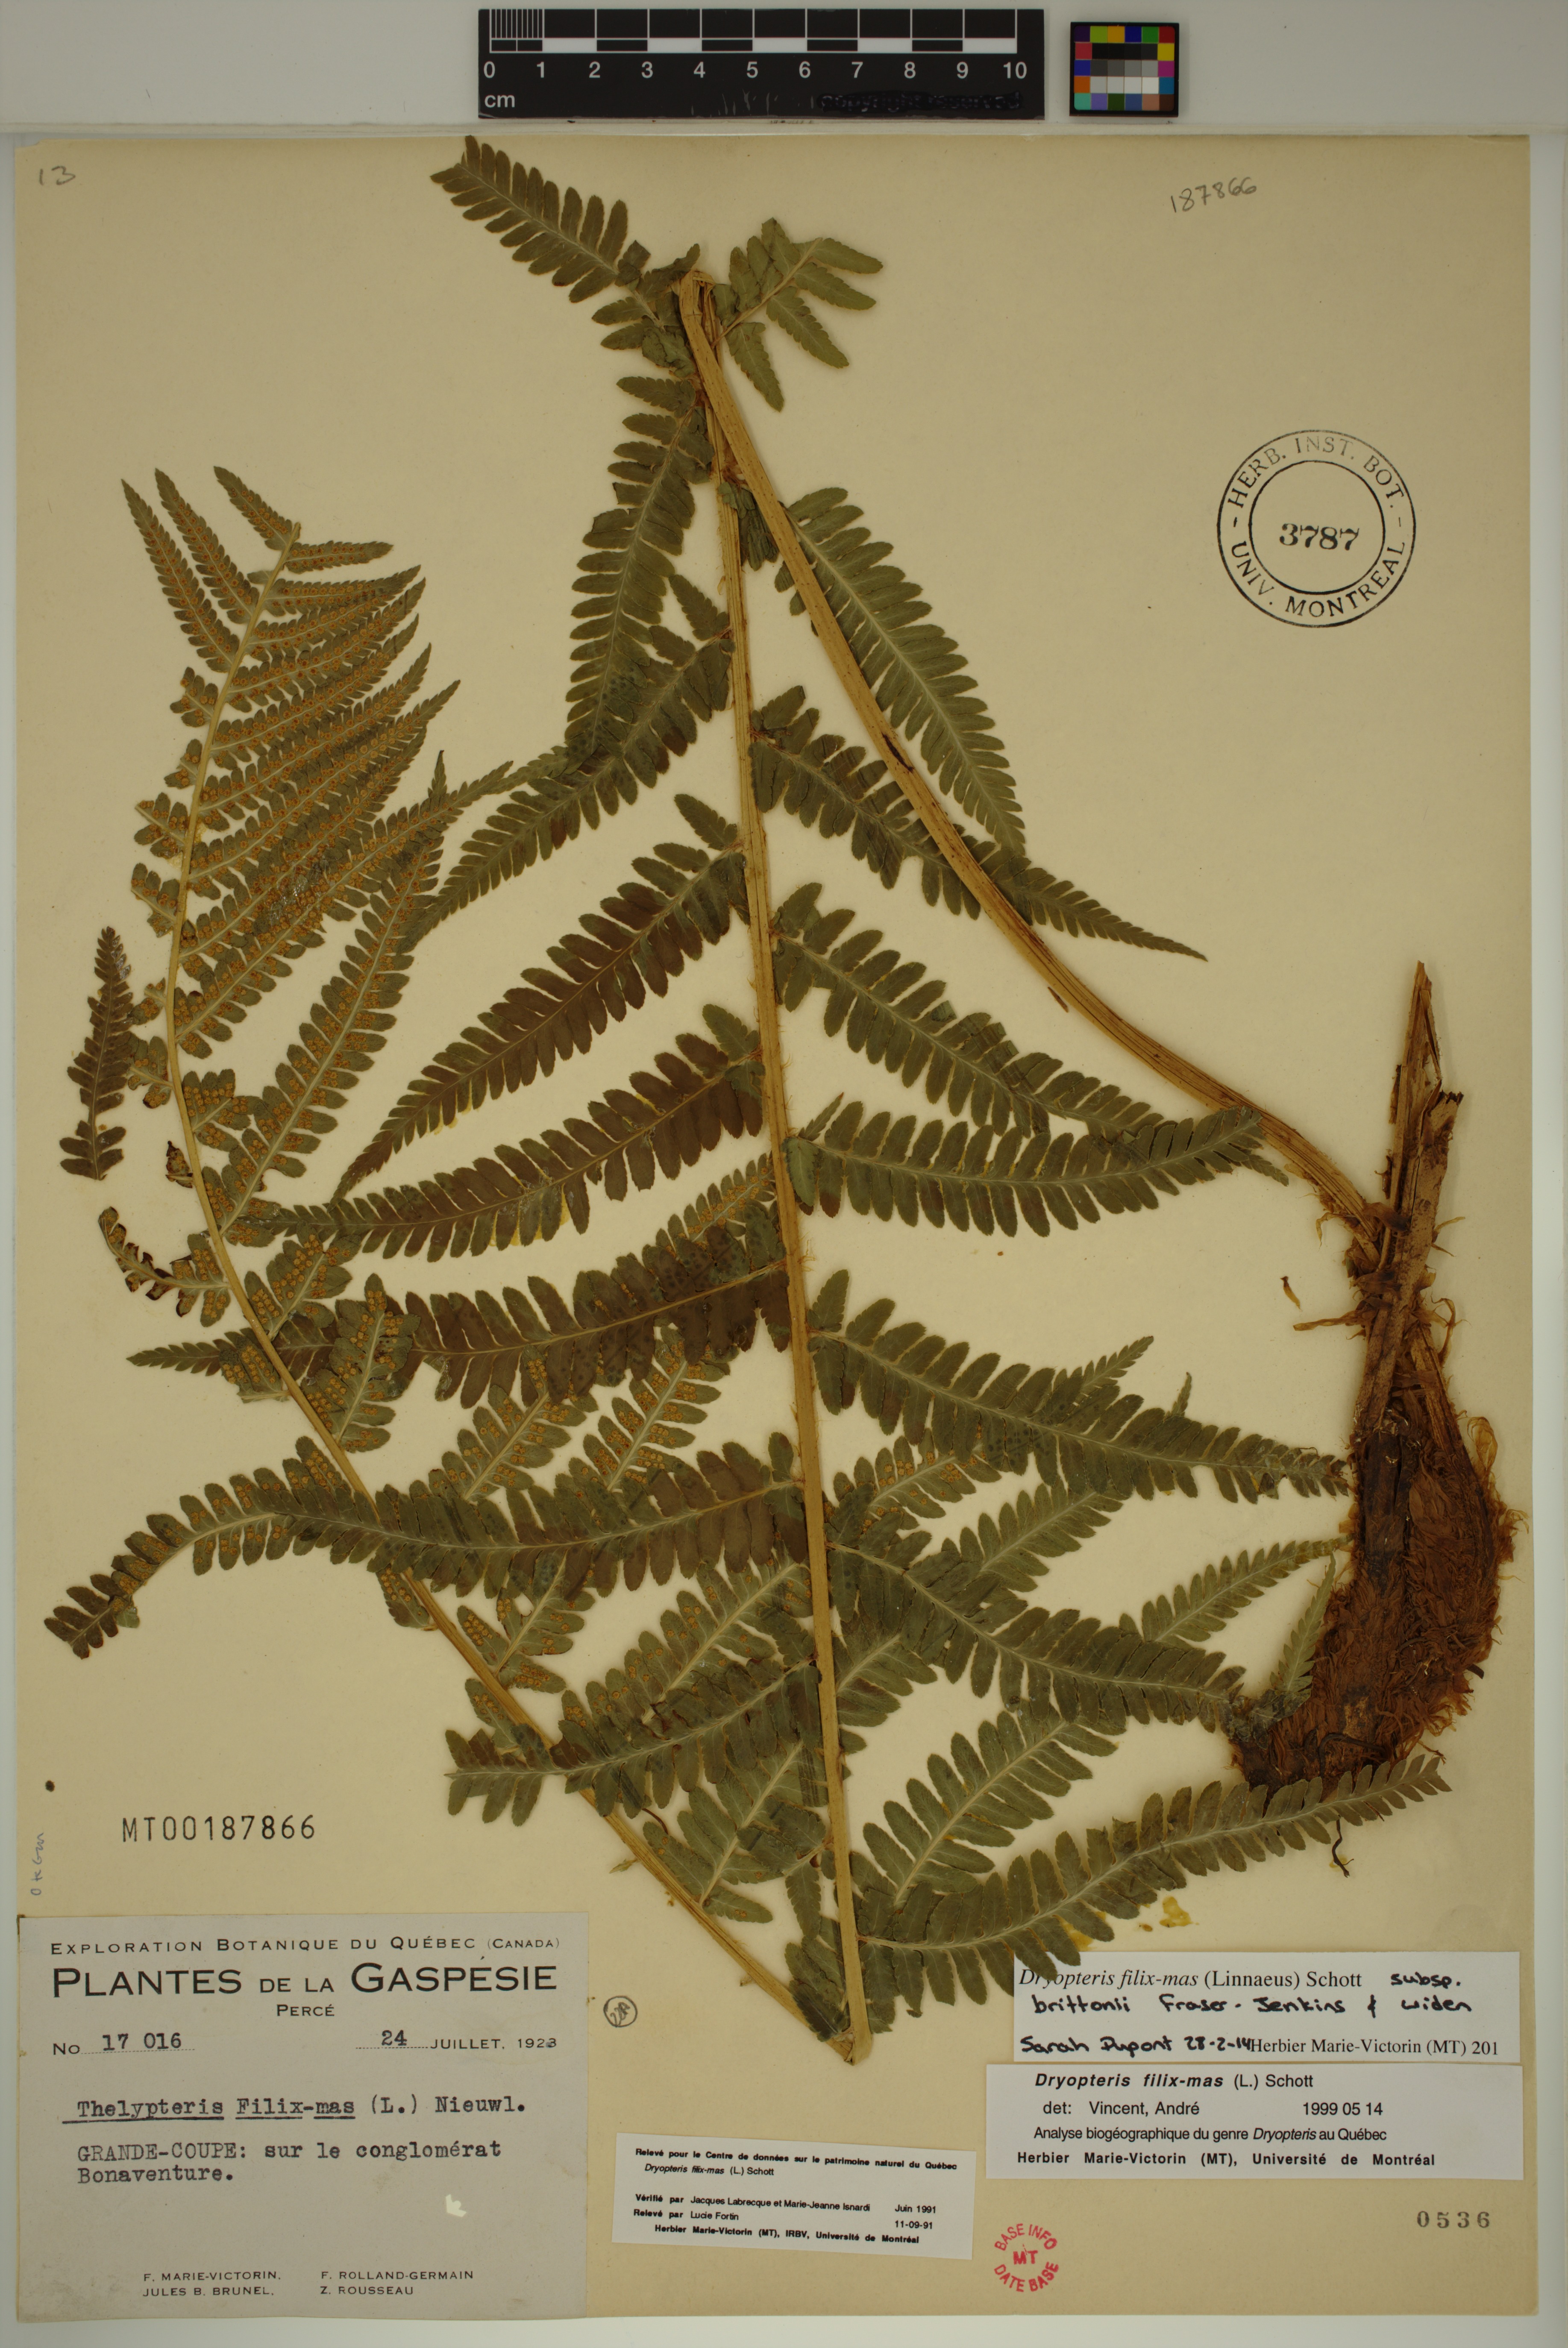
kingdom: Plantae
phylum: Tracheophyta
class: Polypodiopsida
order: Polypodiales
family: Dryopteridaceae
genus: Dryopteris
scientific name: Dryopteris filix-mas
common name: Male fern
